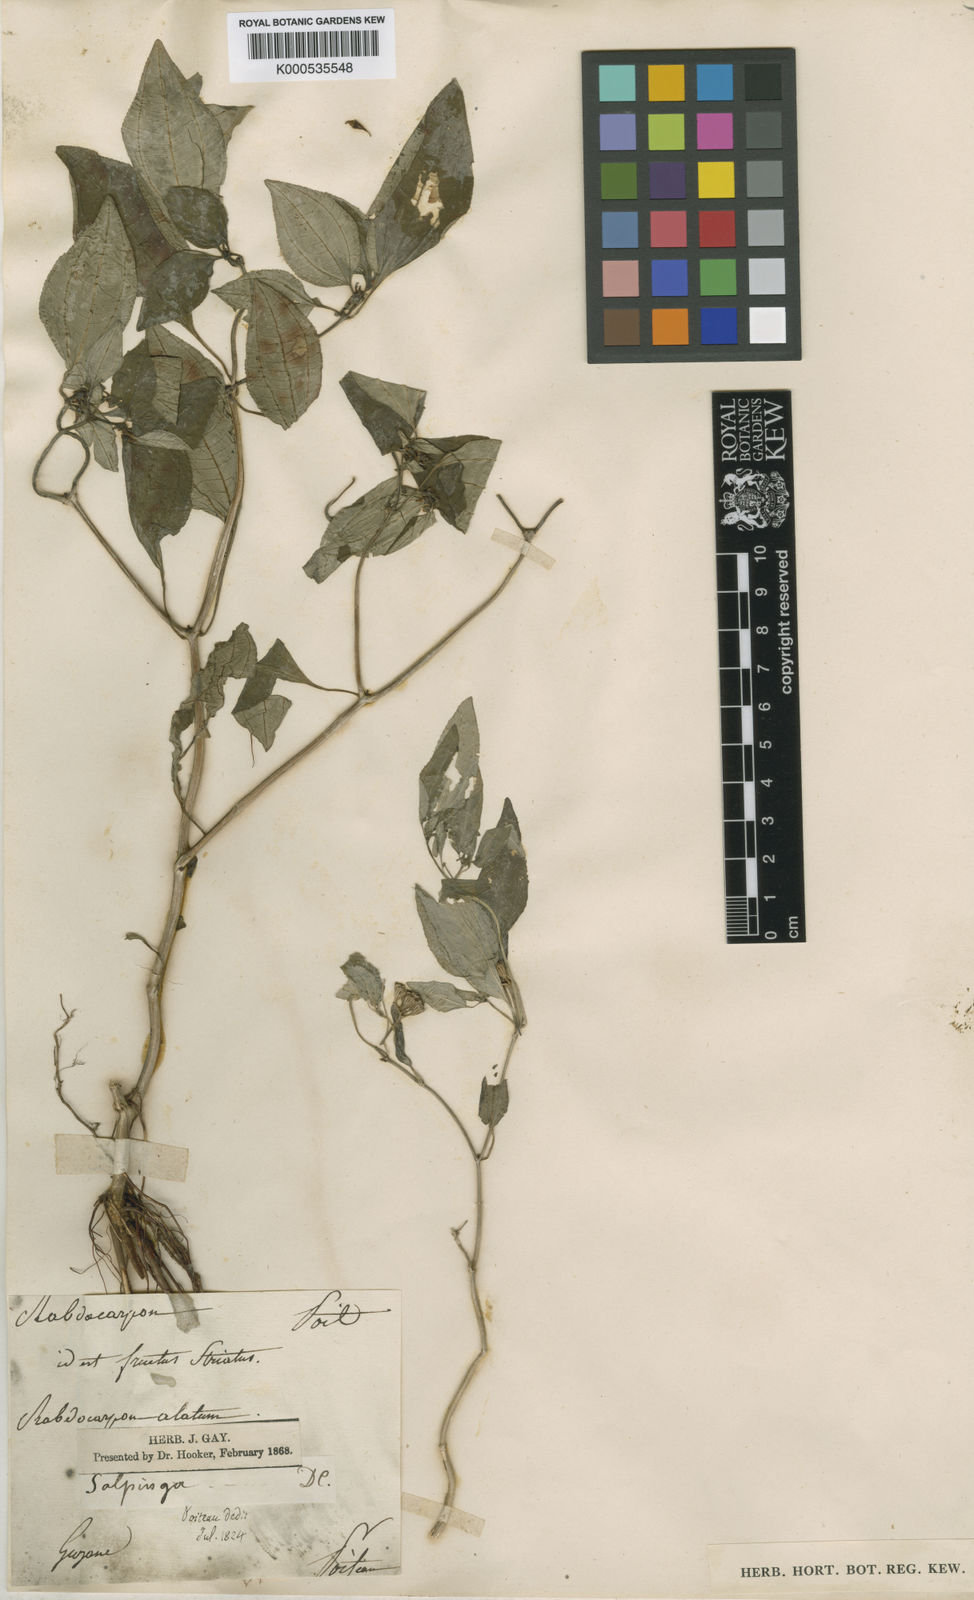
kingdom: Plantae
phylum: Tracheophyta
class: Magnoliopsida
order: Myrtales
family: Melastomataceae
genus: Macrocentrum
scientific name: Macrocentrum fasciculatum
